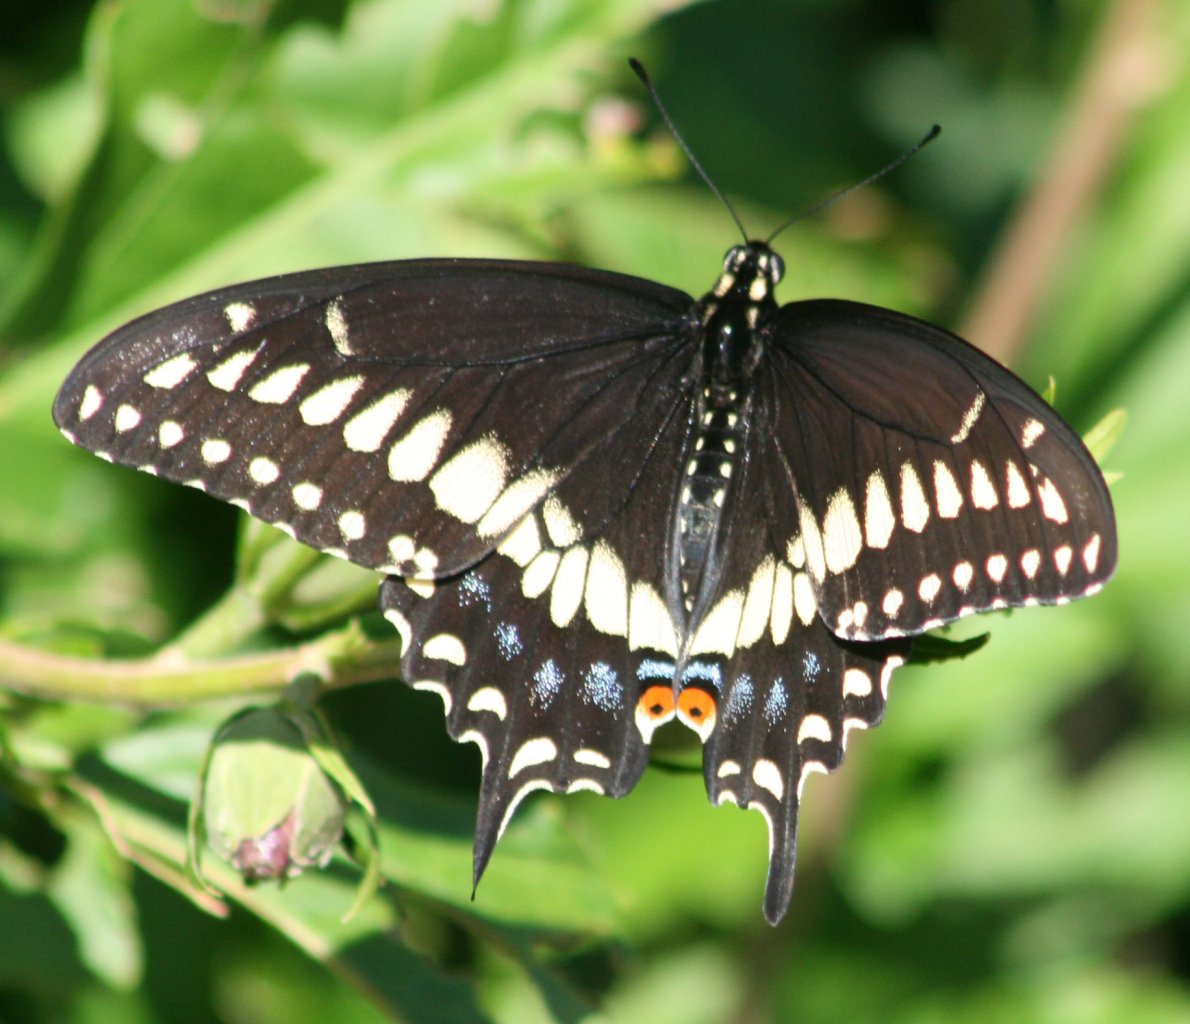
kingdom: Animalia
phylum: Arthropoda
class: Insecta
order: Lepidoptera
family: Papilionidae
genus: Papilio
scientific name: Papilio polyxenes
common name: Black Swallowtail
